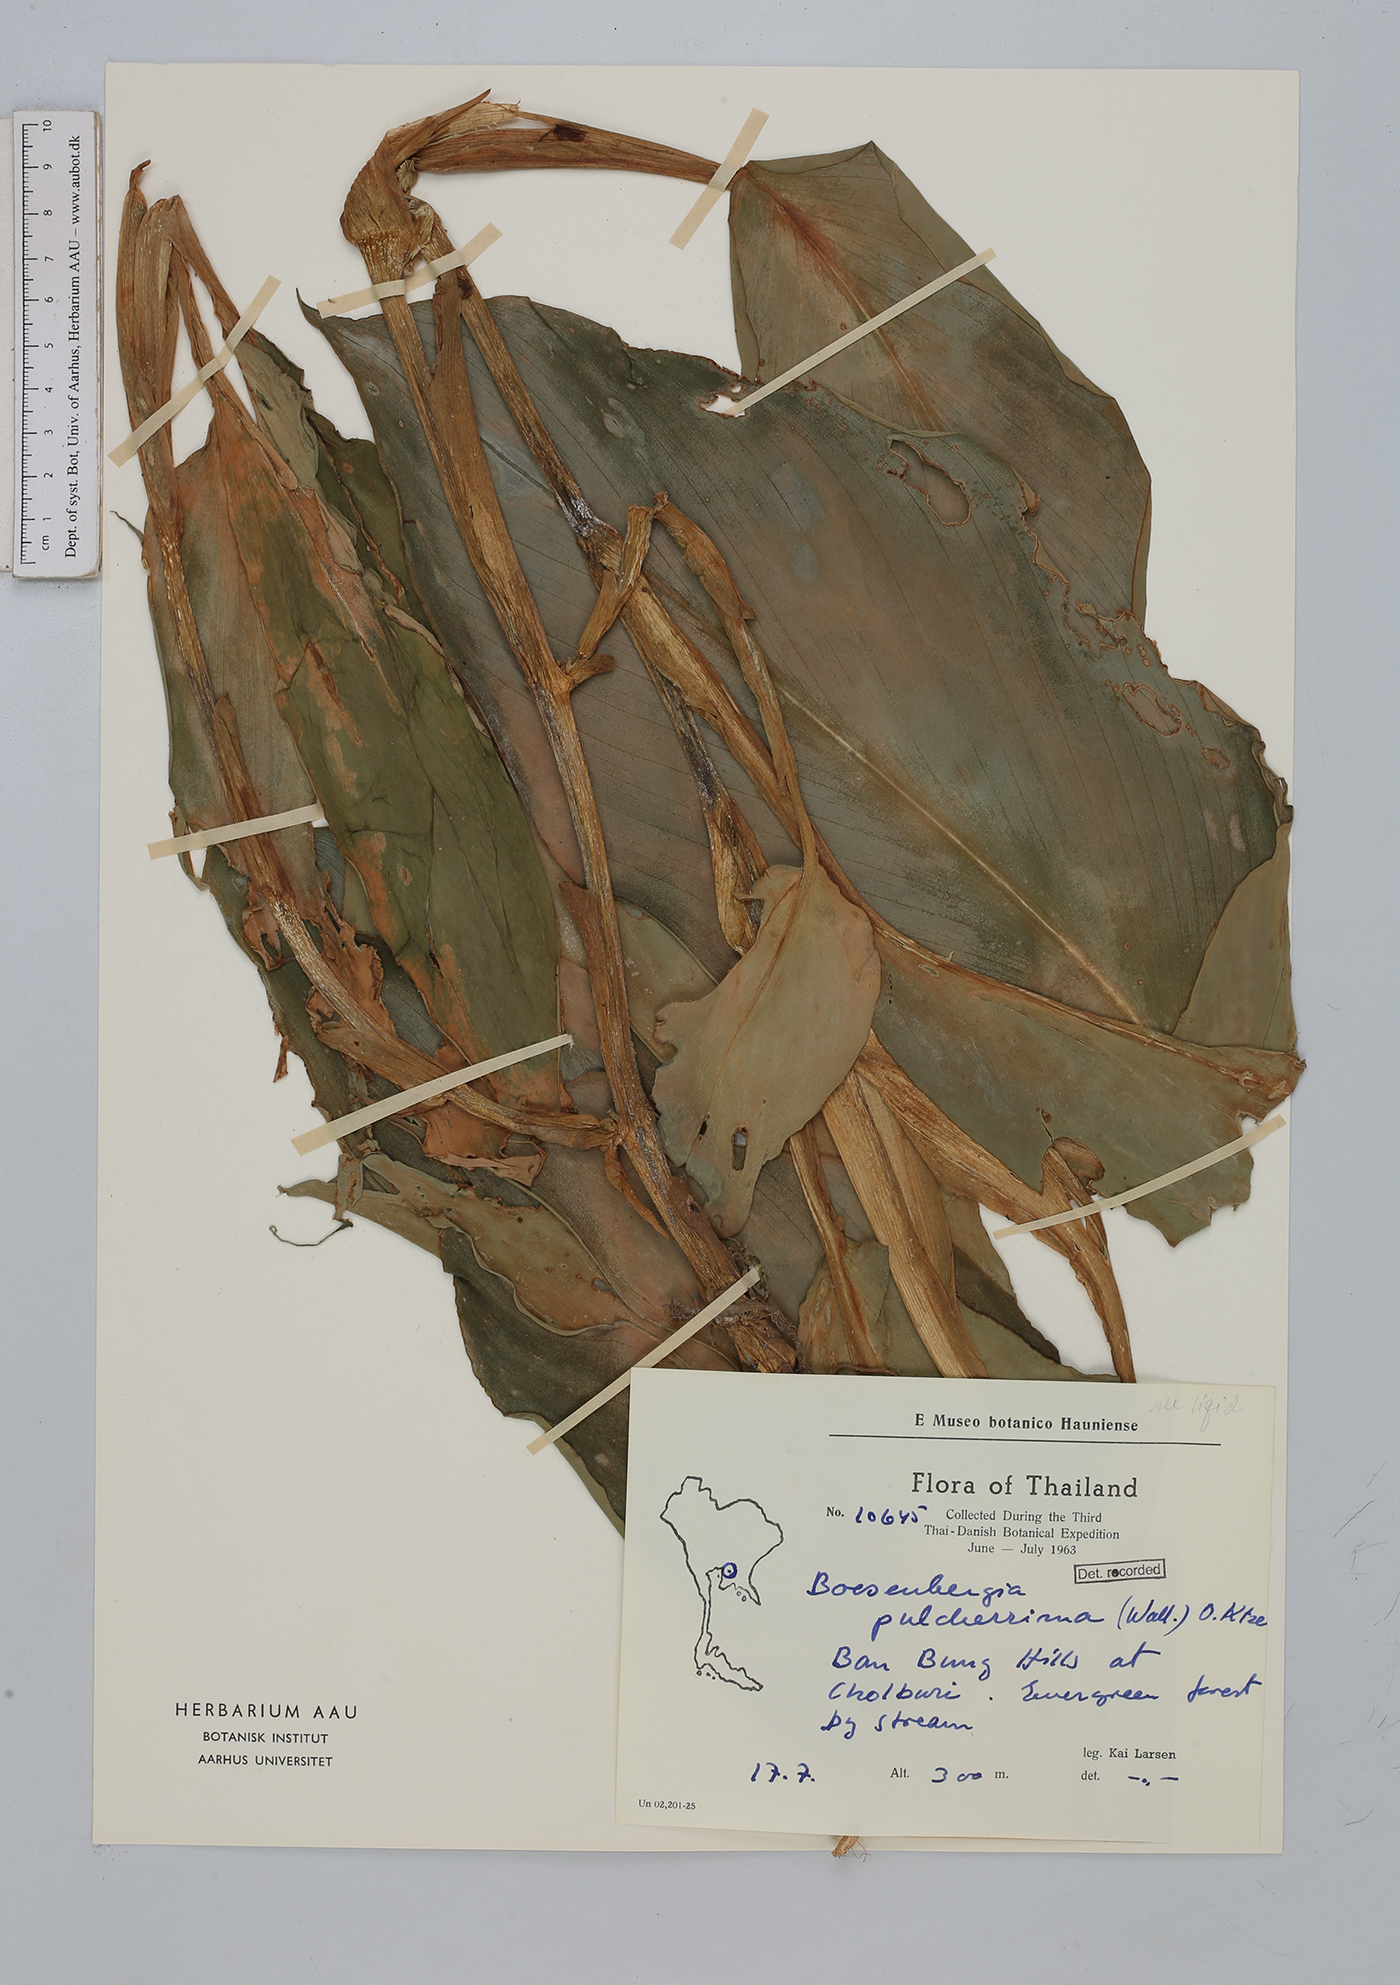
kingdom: Plantae
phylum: Tracheophyta
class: Liliopsida
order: Zingiberales
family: Zingiberaceae
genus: Boesenbergia
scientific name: Boesenbergia pulcherrima
